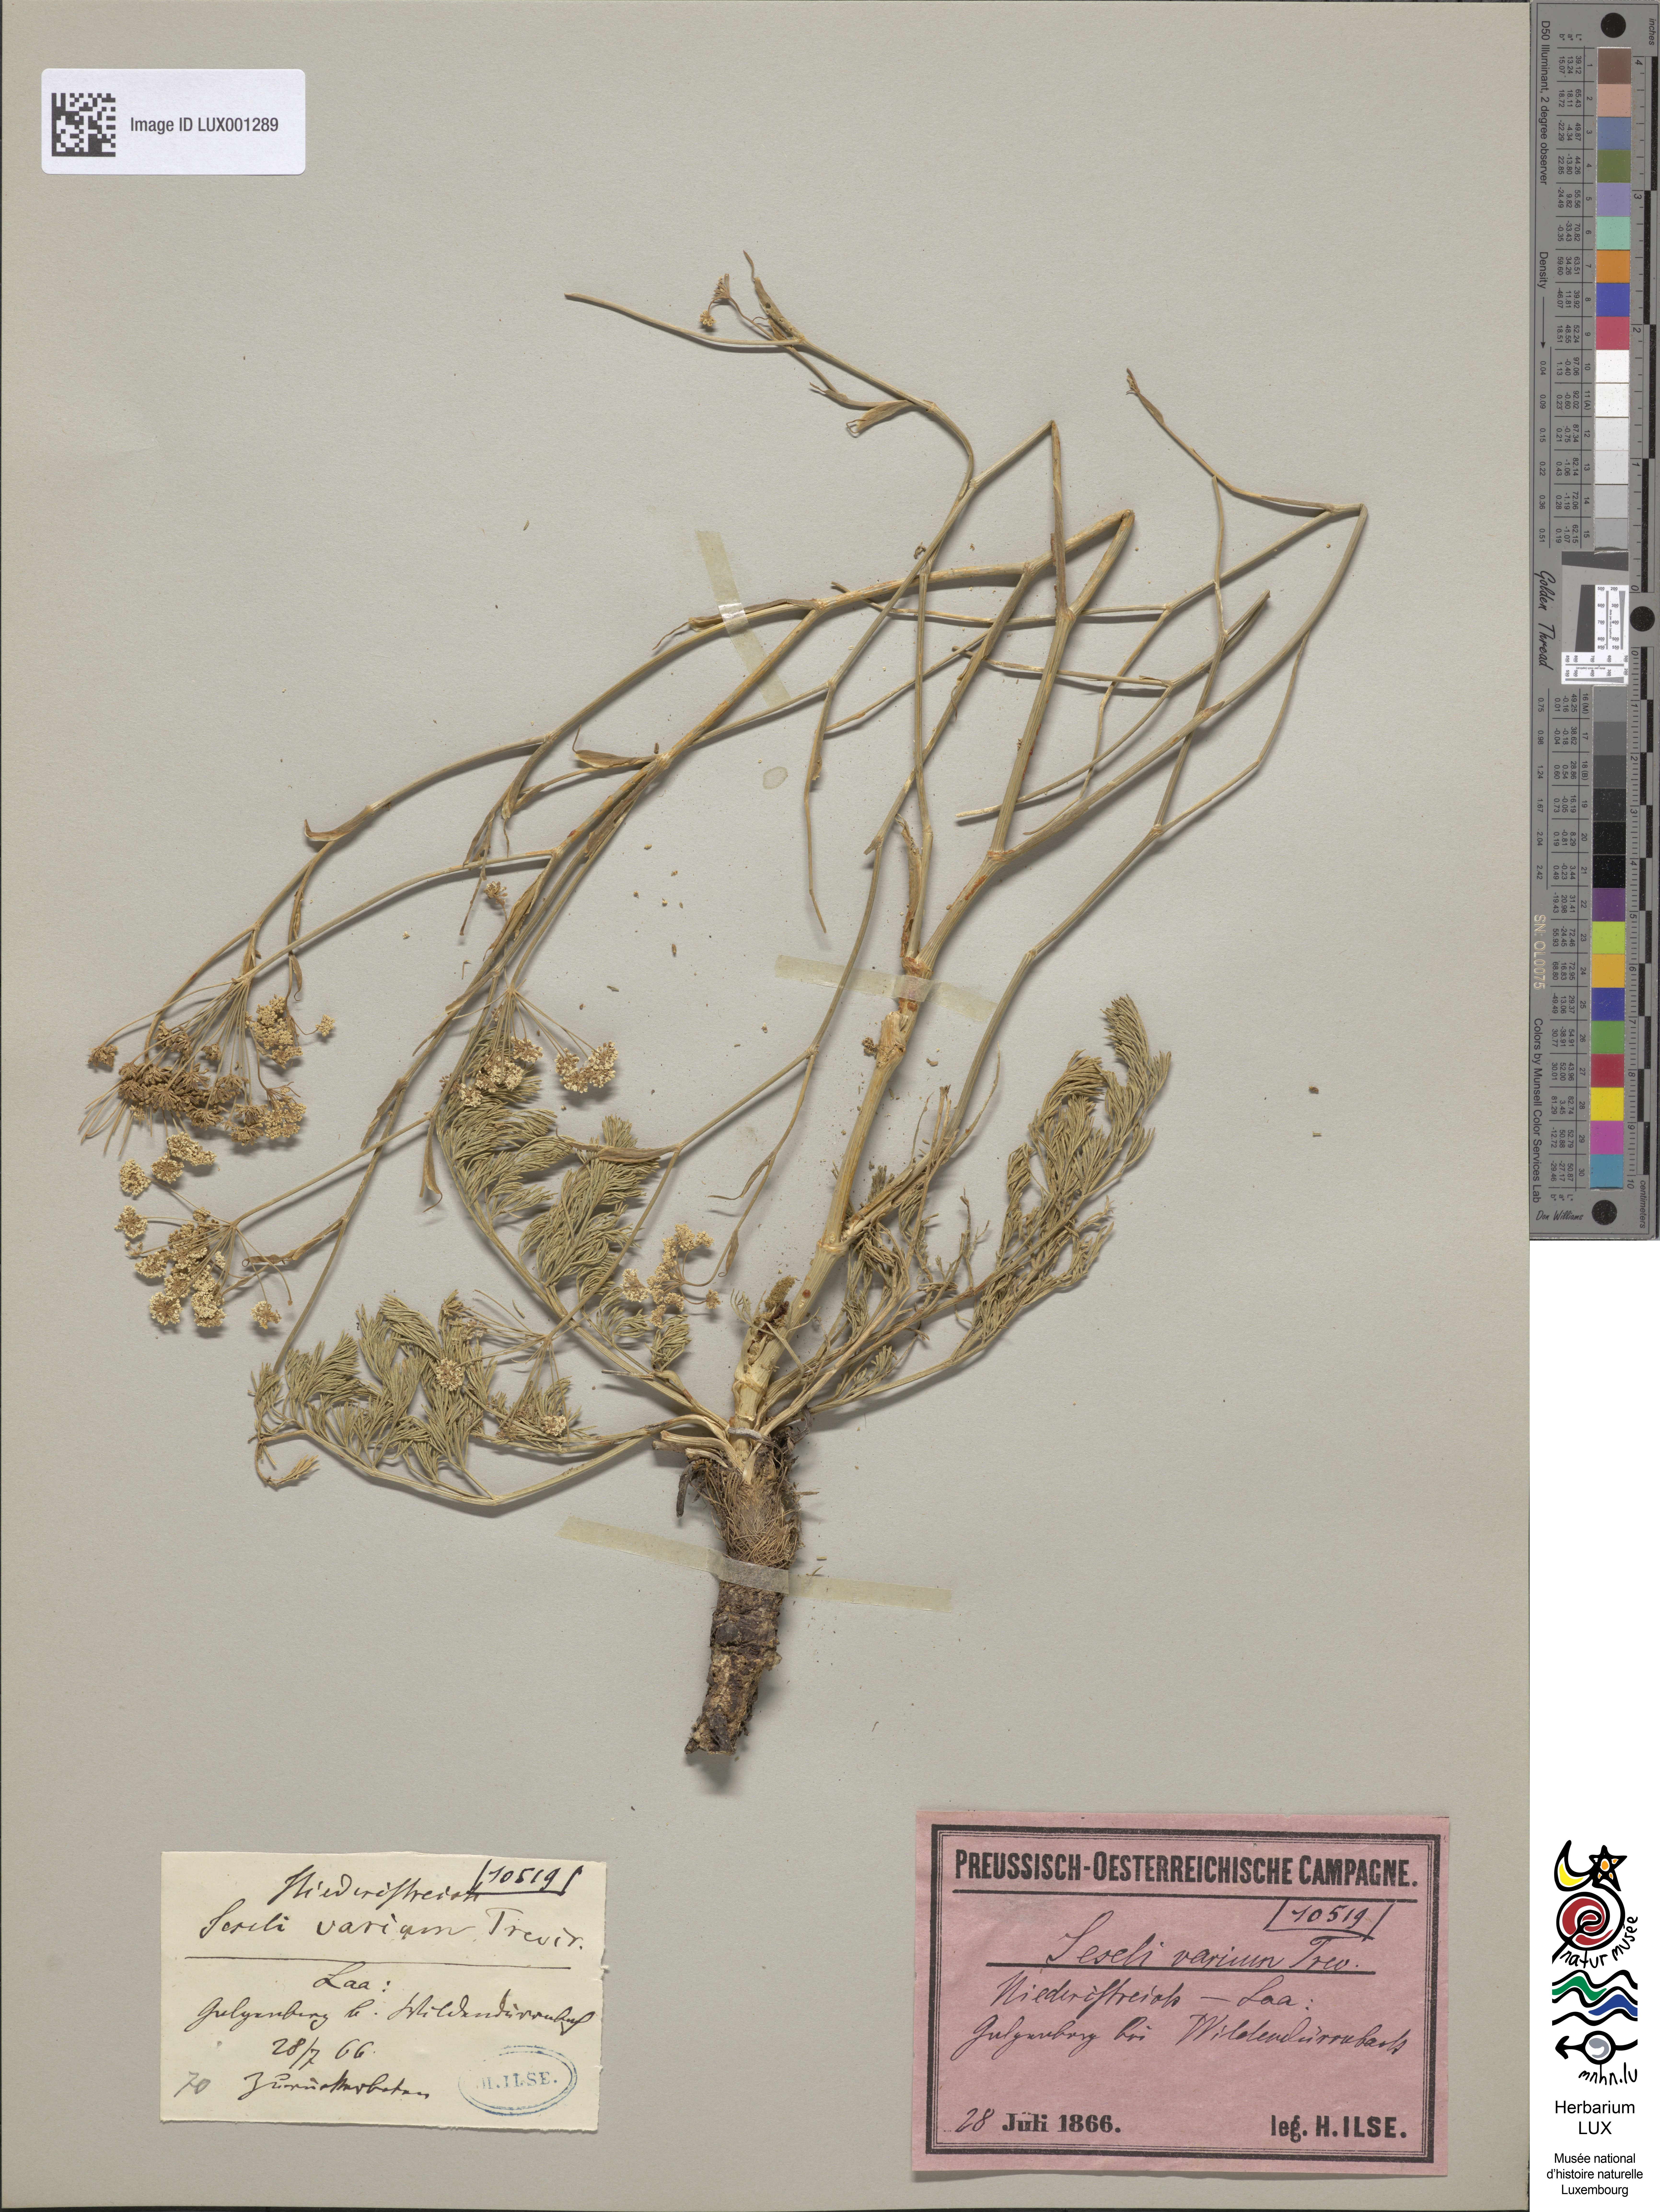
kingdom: Plantae
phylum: Tracheophyta
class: Magnoliopsida
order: Apiales
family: Apiaceae
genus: Seseli
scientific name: Seseli pallasii
